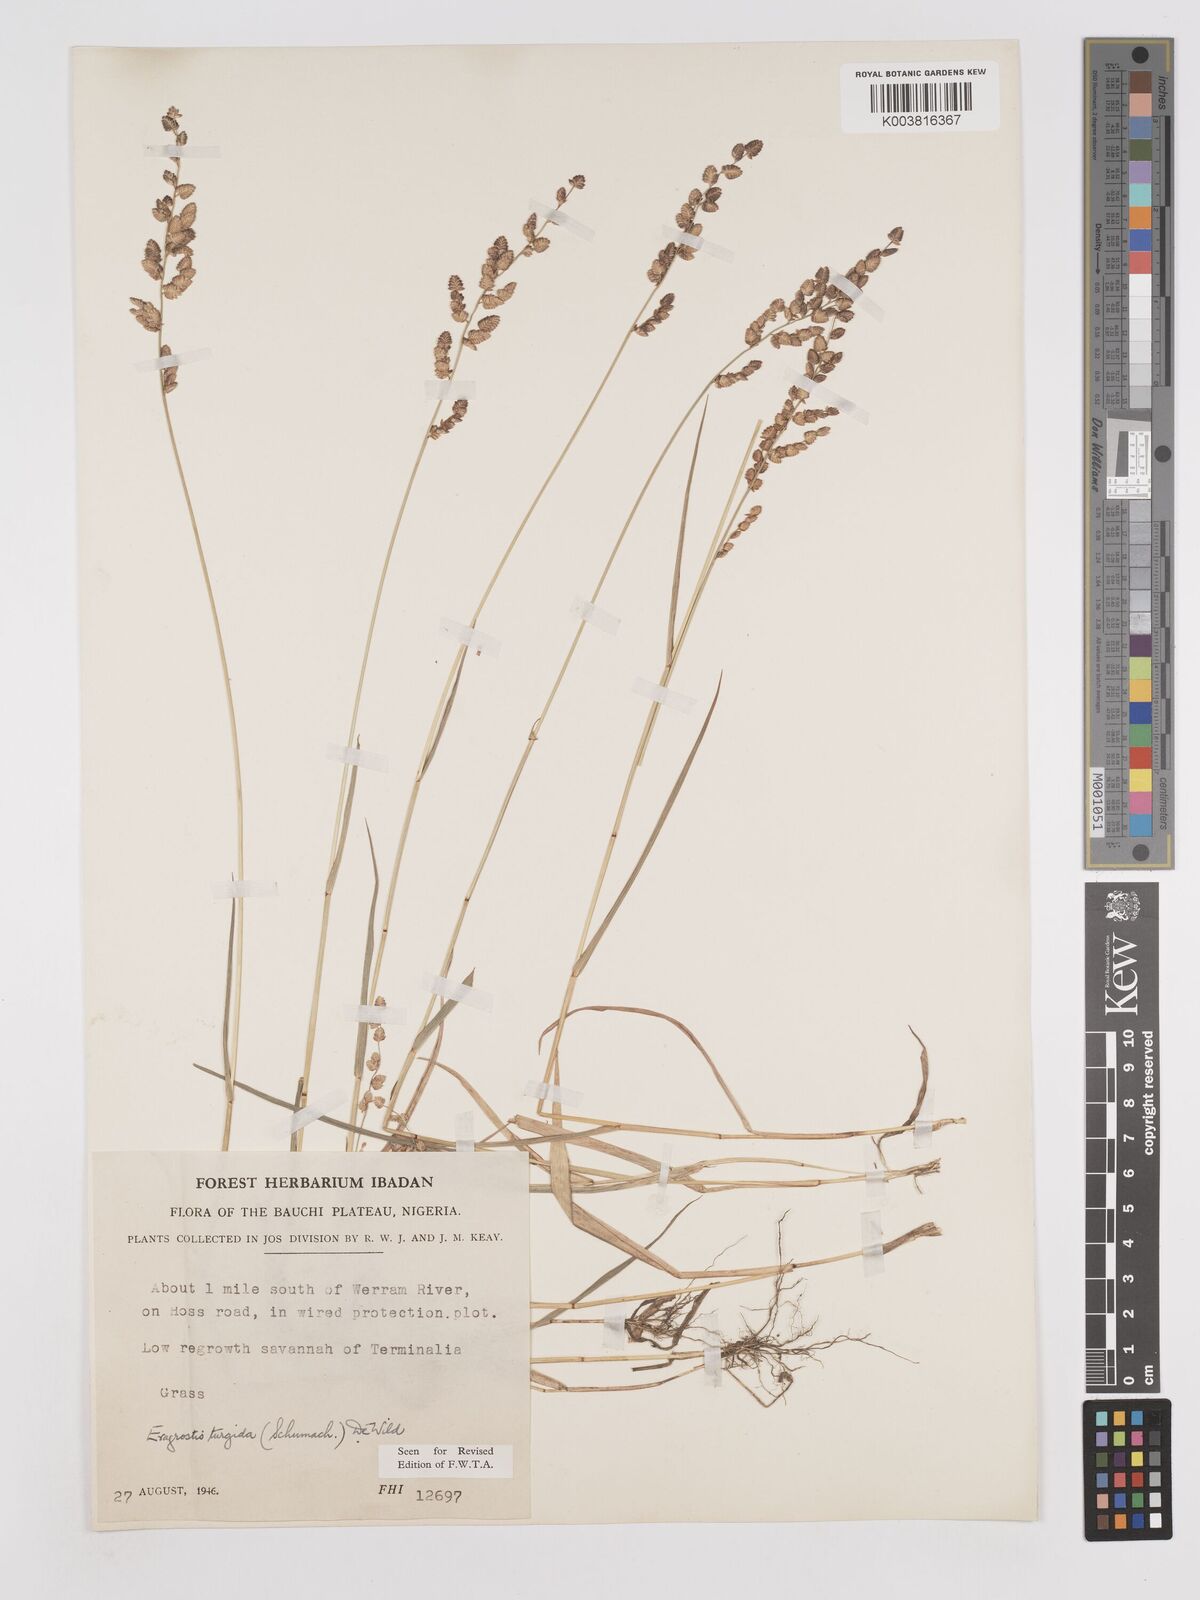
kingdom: Plantae
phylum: Tracheophyta
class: Liliopsida
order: Poales
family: Poaceae
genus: Eragrostis
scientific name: Eragrostis turgida
